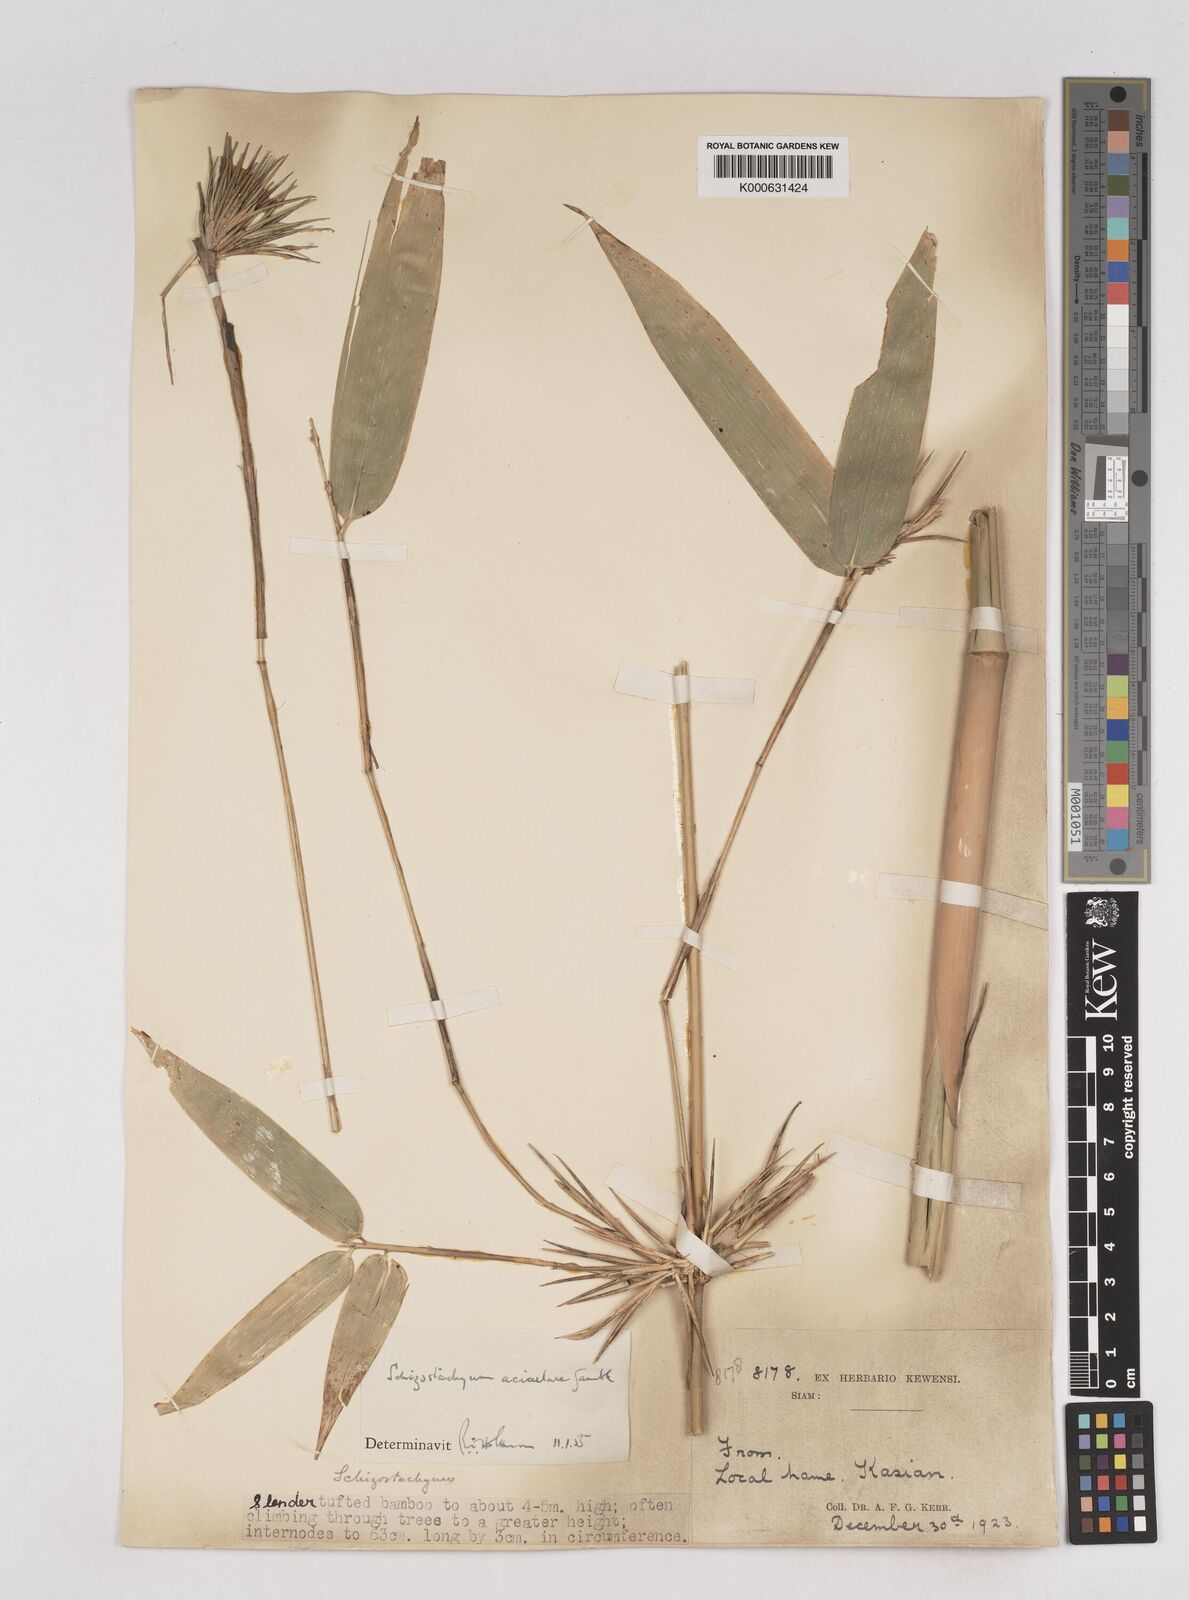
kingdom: Plantae
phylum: Tracheophyta
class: Liliopsida
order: Poales
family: Poaceae
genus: Schizostachyum
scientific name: Schizostachyum aciculare
